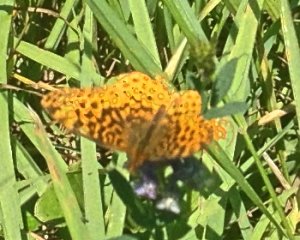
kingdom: Animalia
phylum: Arthropoda
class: Insecta
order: Lepidoptera
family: Nymphalidae
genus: Clossiana
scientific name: Clossiana toddi
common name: Meadow Fritillary
